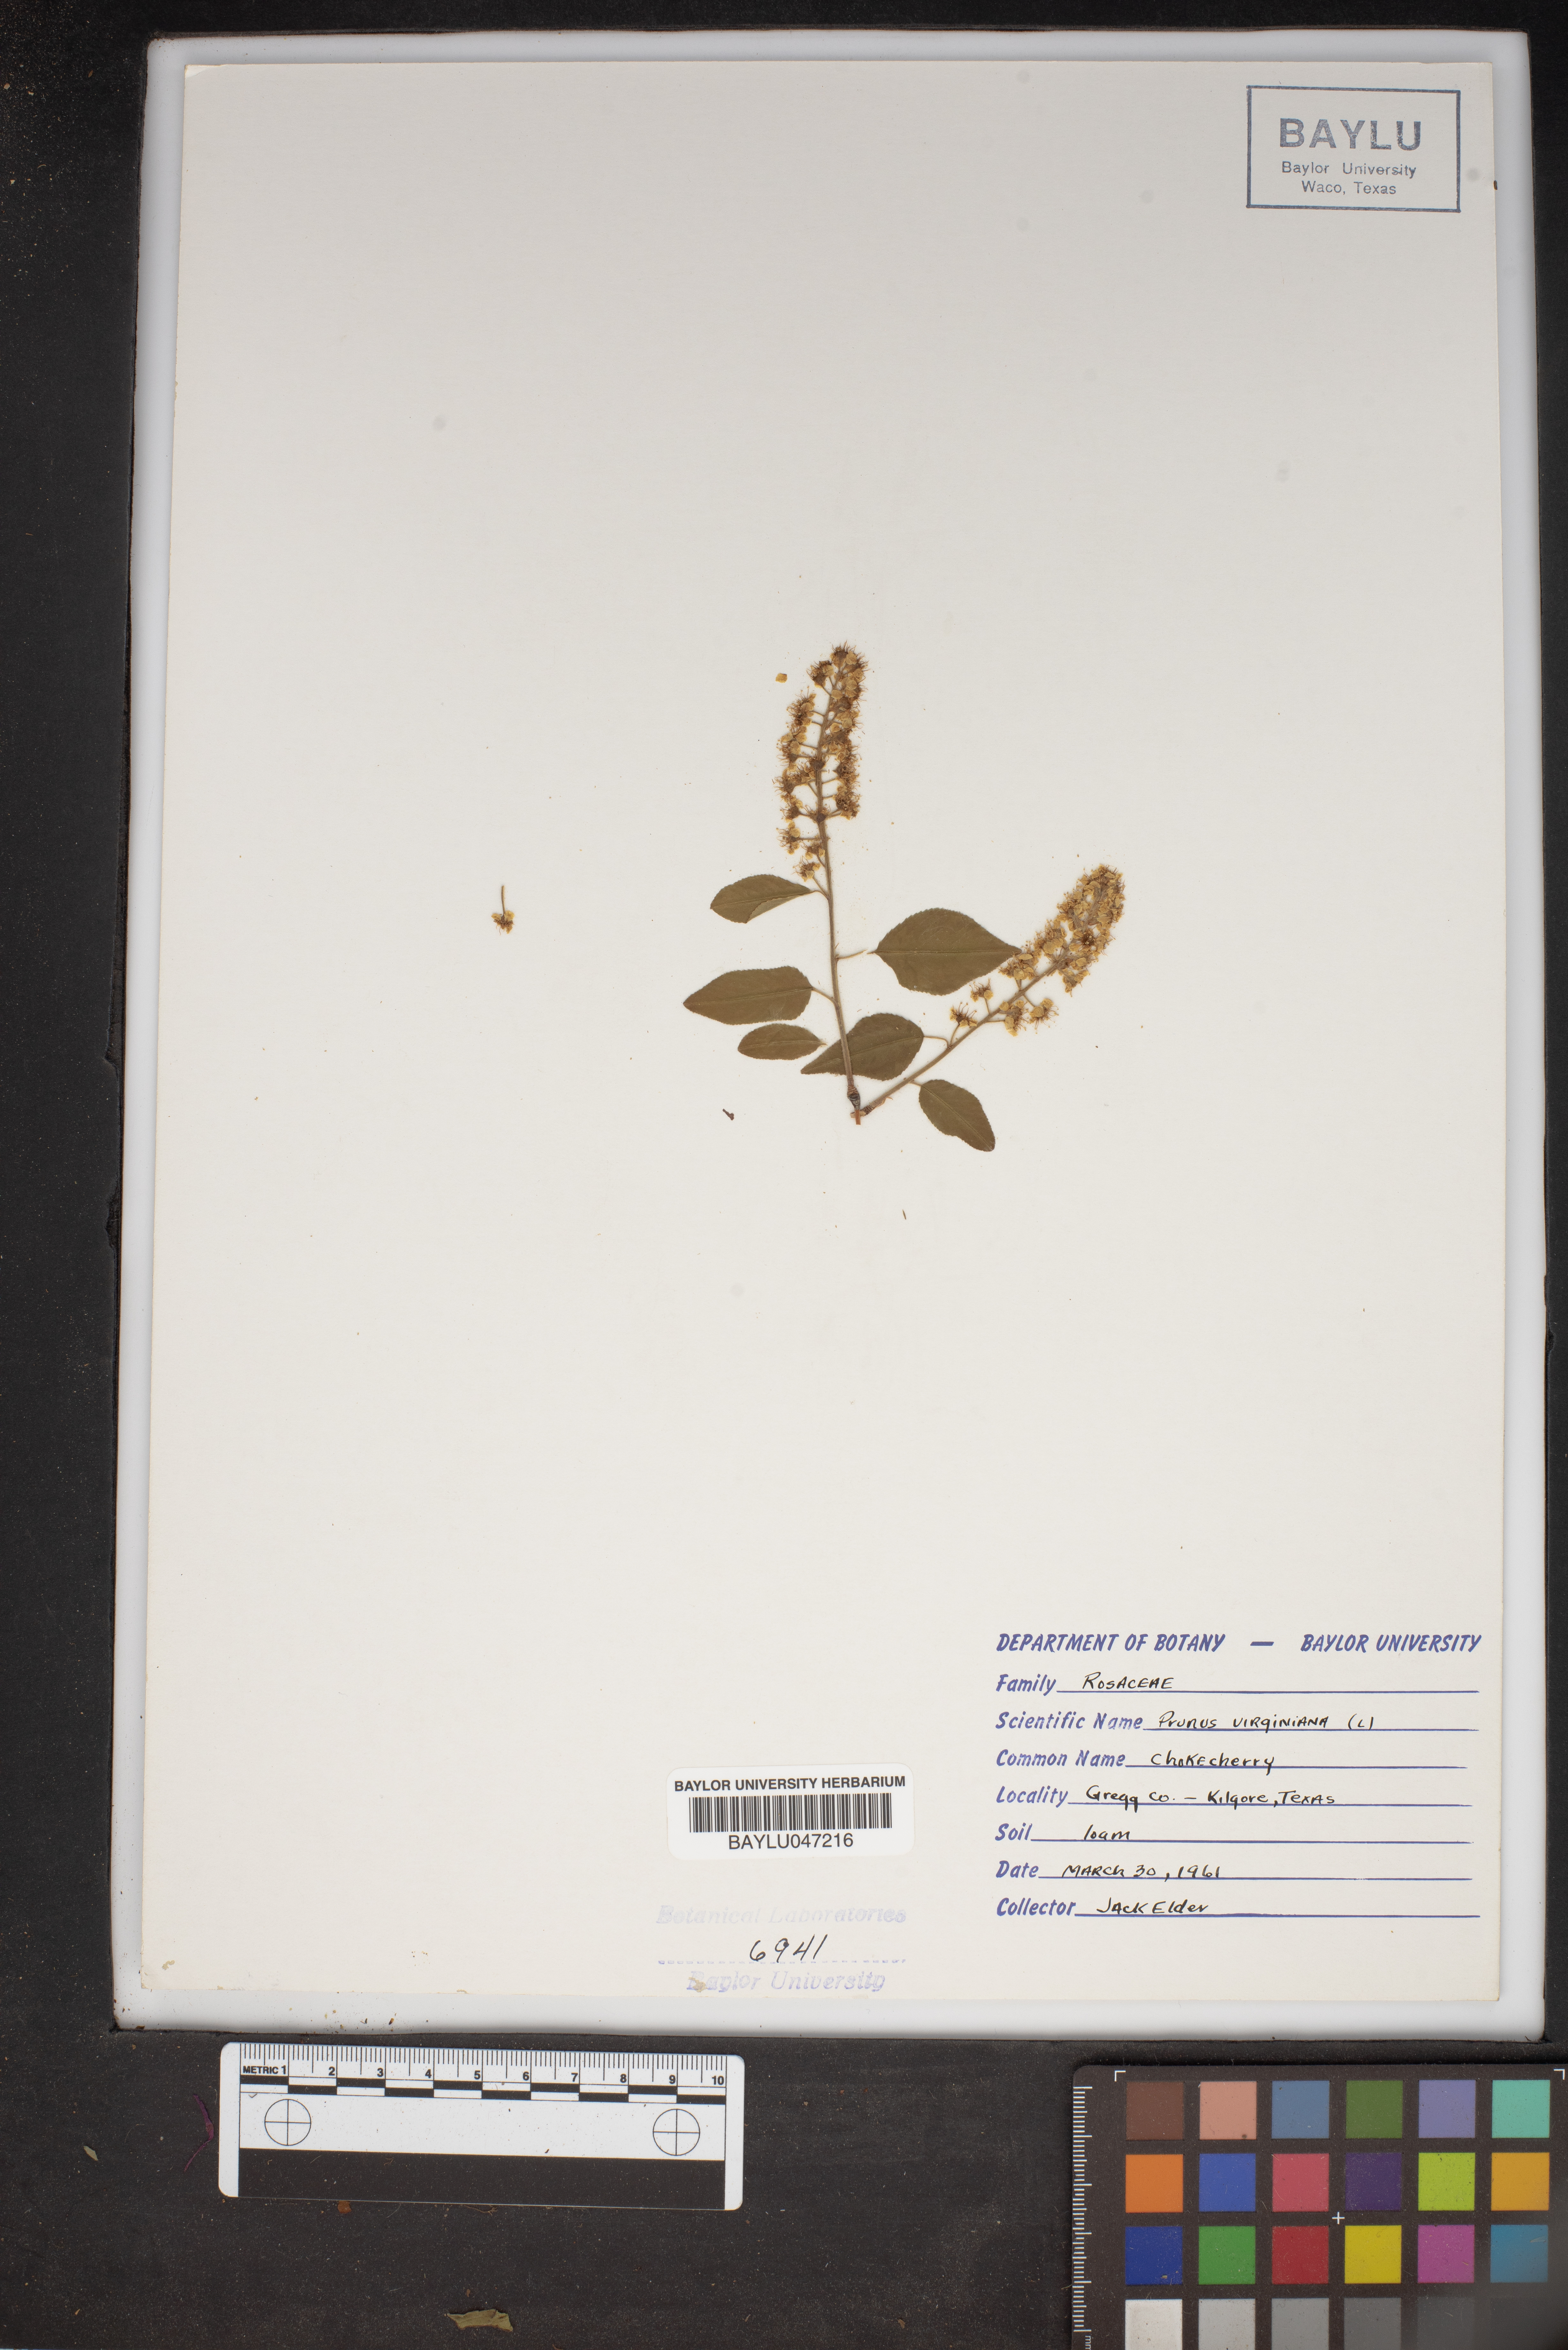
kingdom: Plantae
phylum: Tracheophyta
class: Magnoliopsida
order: Rosales
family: Rosaceae
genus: Prunus
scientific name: Prunus virginiana
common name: Chokecherry
